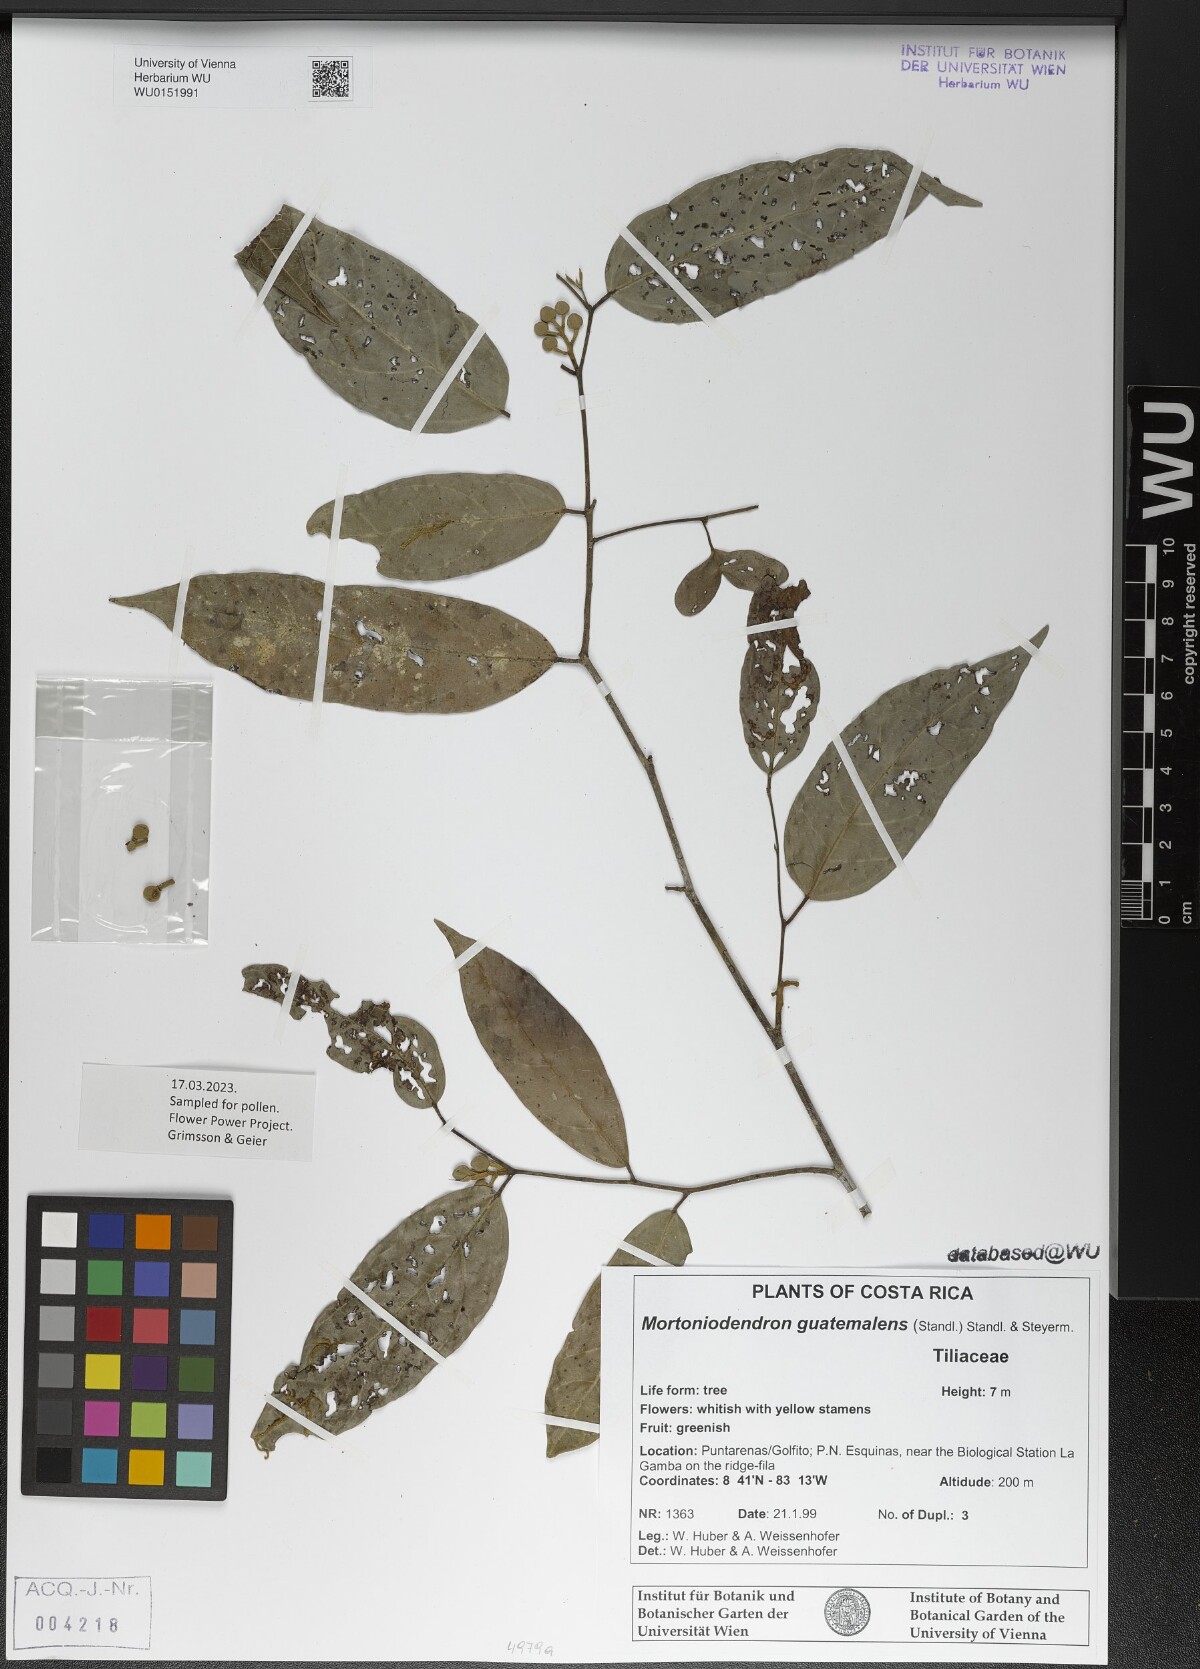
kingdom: Plantae
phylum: Tracheophyta
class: Magnoliopsida
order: Malvales
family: Malvaceae
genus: Mortoniodendron
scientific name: Mortoniodendron guatemalense
